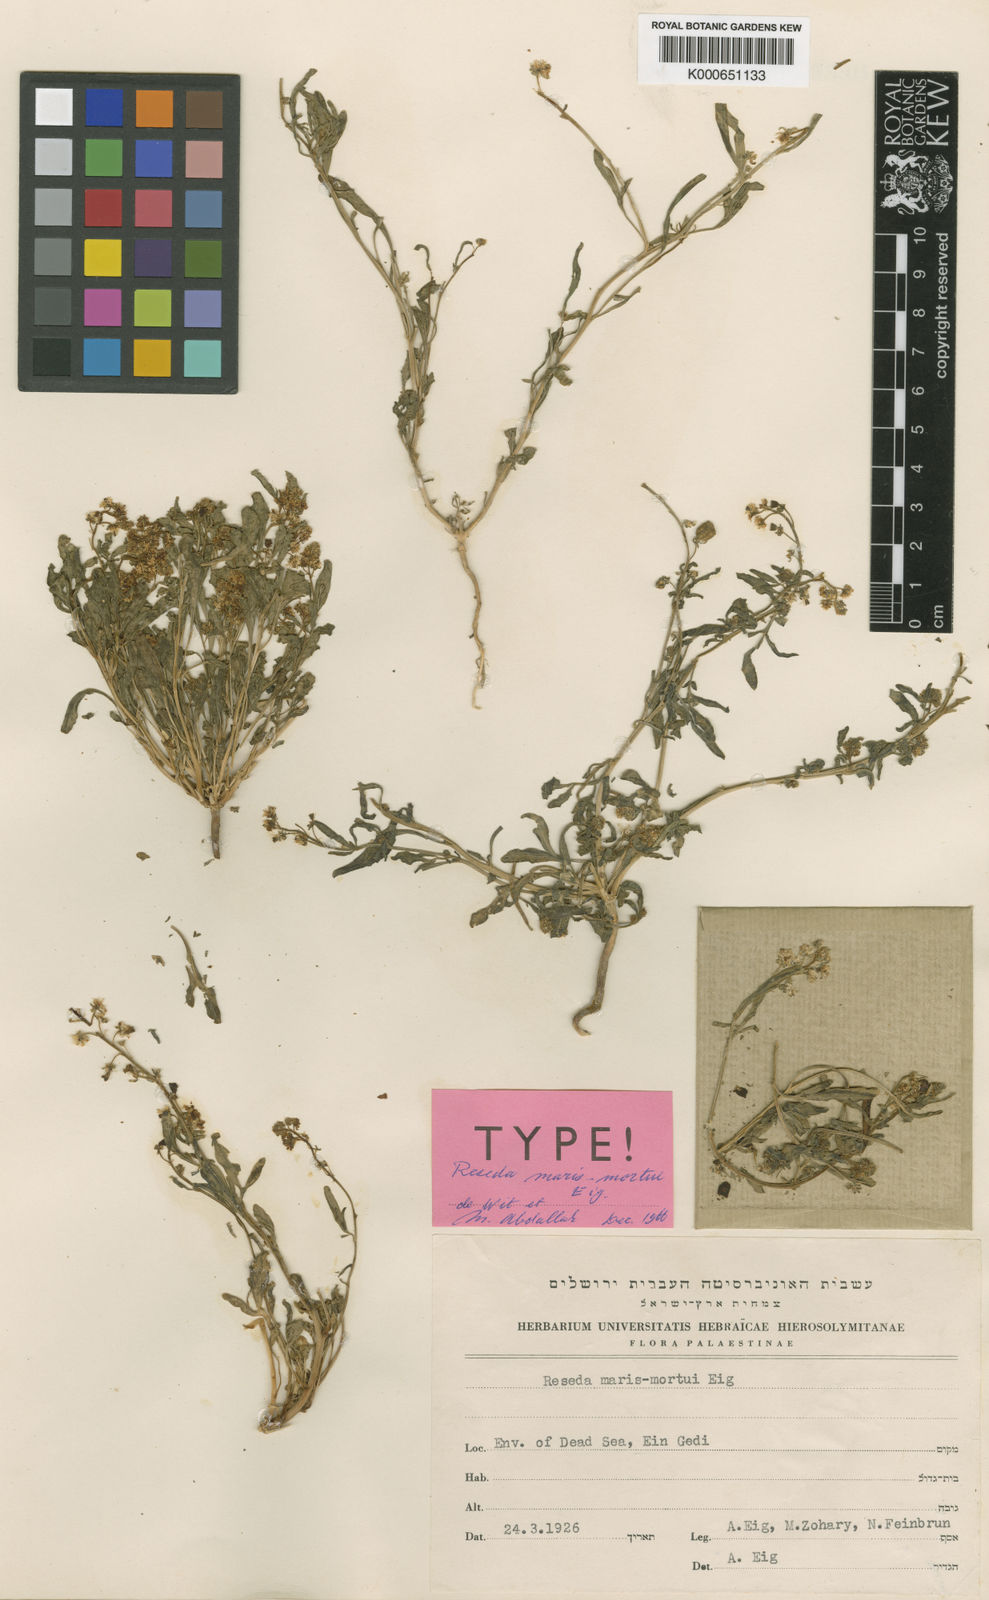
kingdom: Plantae
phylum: Tracheophyta
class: Magnoliopsida
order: Brassicales
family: Resedaceae
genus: Reseda
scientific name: Reseda urnigera
